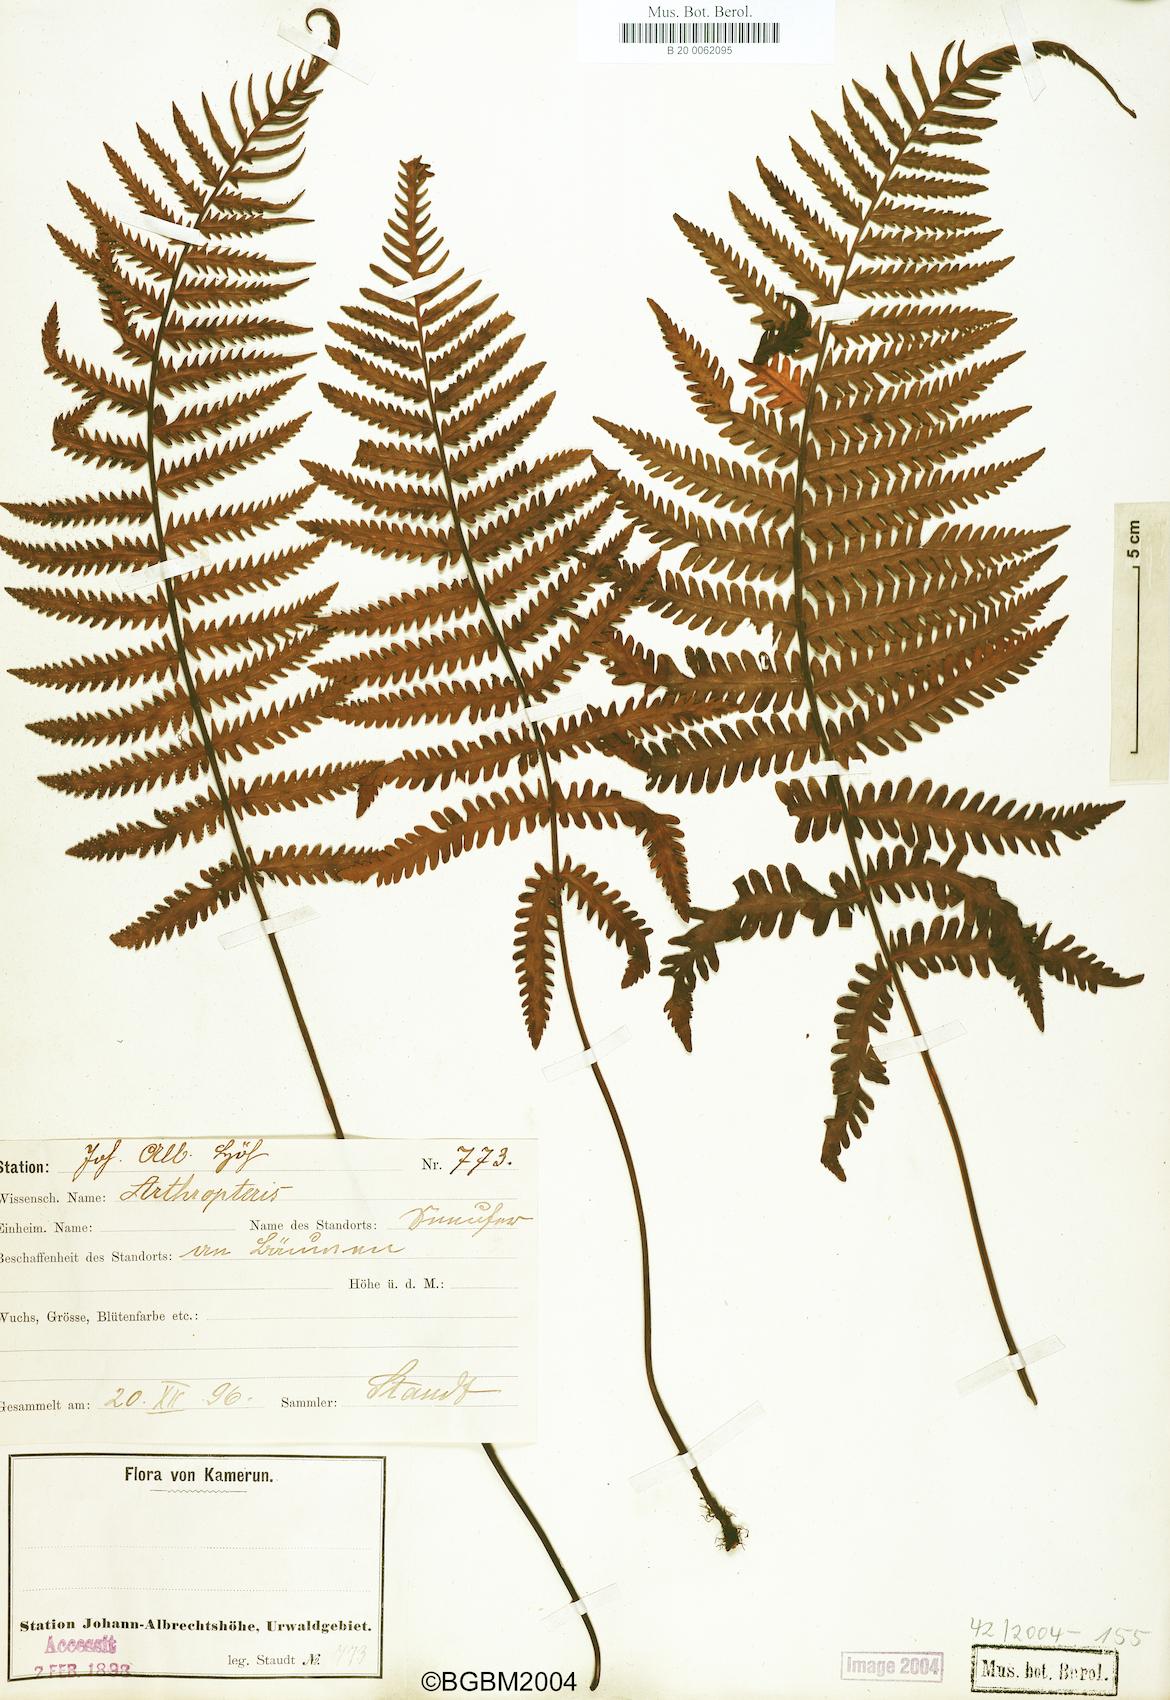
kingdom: Plantae
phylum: Tracheophyta
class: Polypodiopsida
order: Polypodiales
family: Tectariaceae
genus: Arthropteris
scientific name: Arthropteris orientalis
